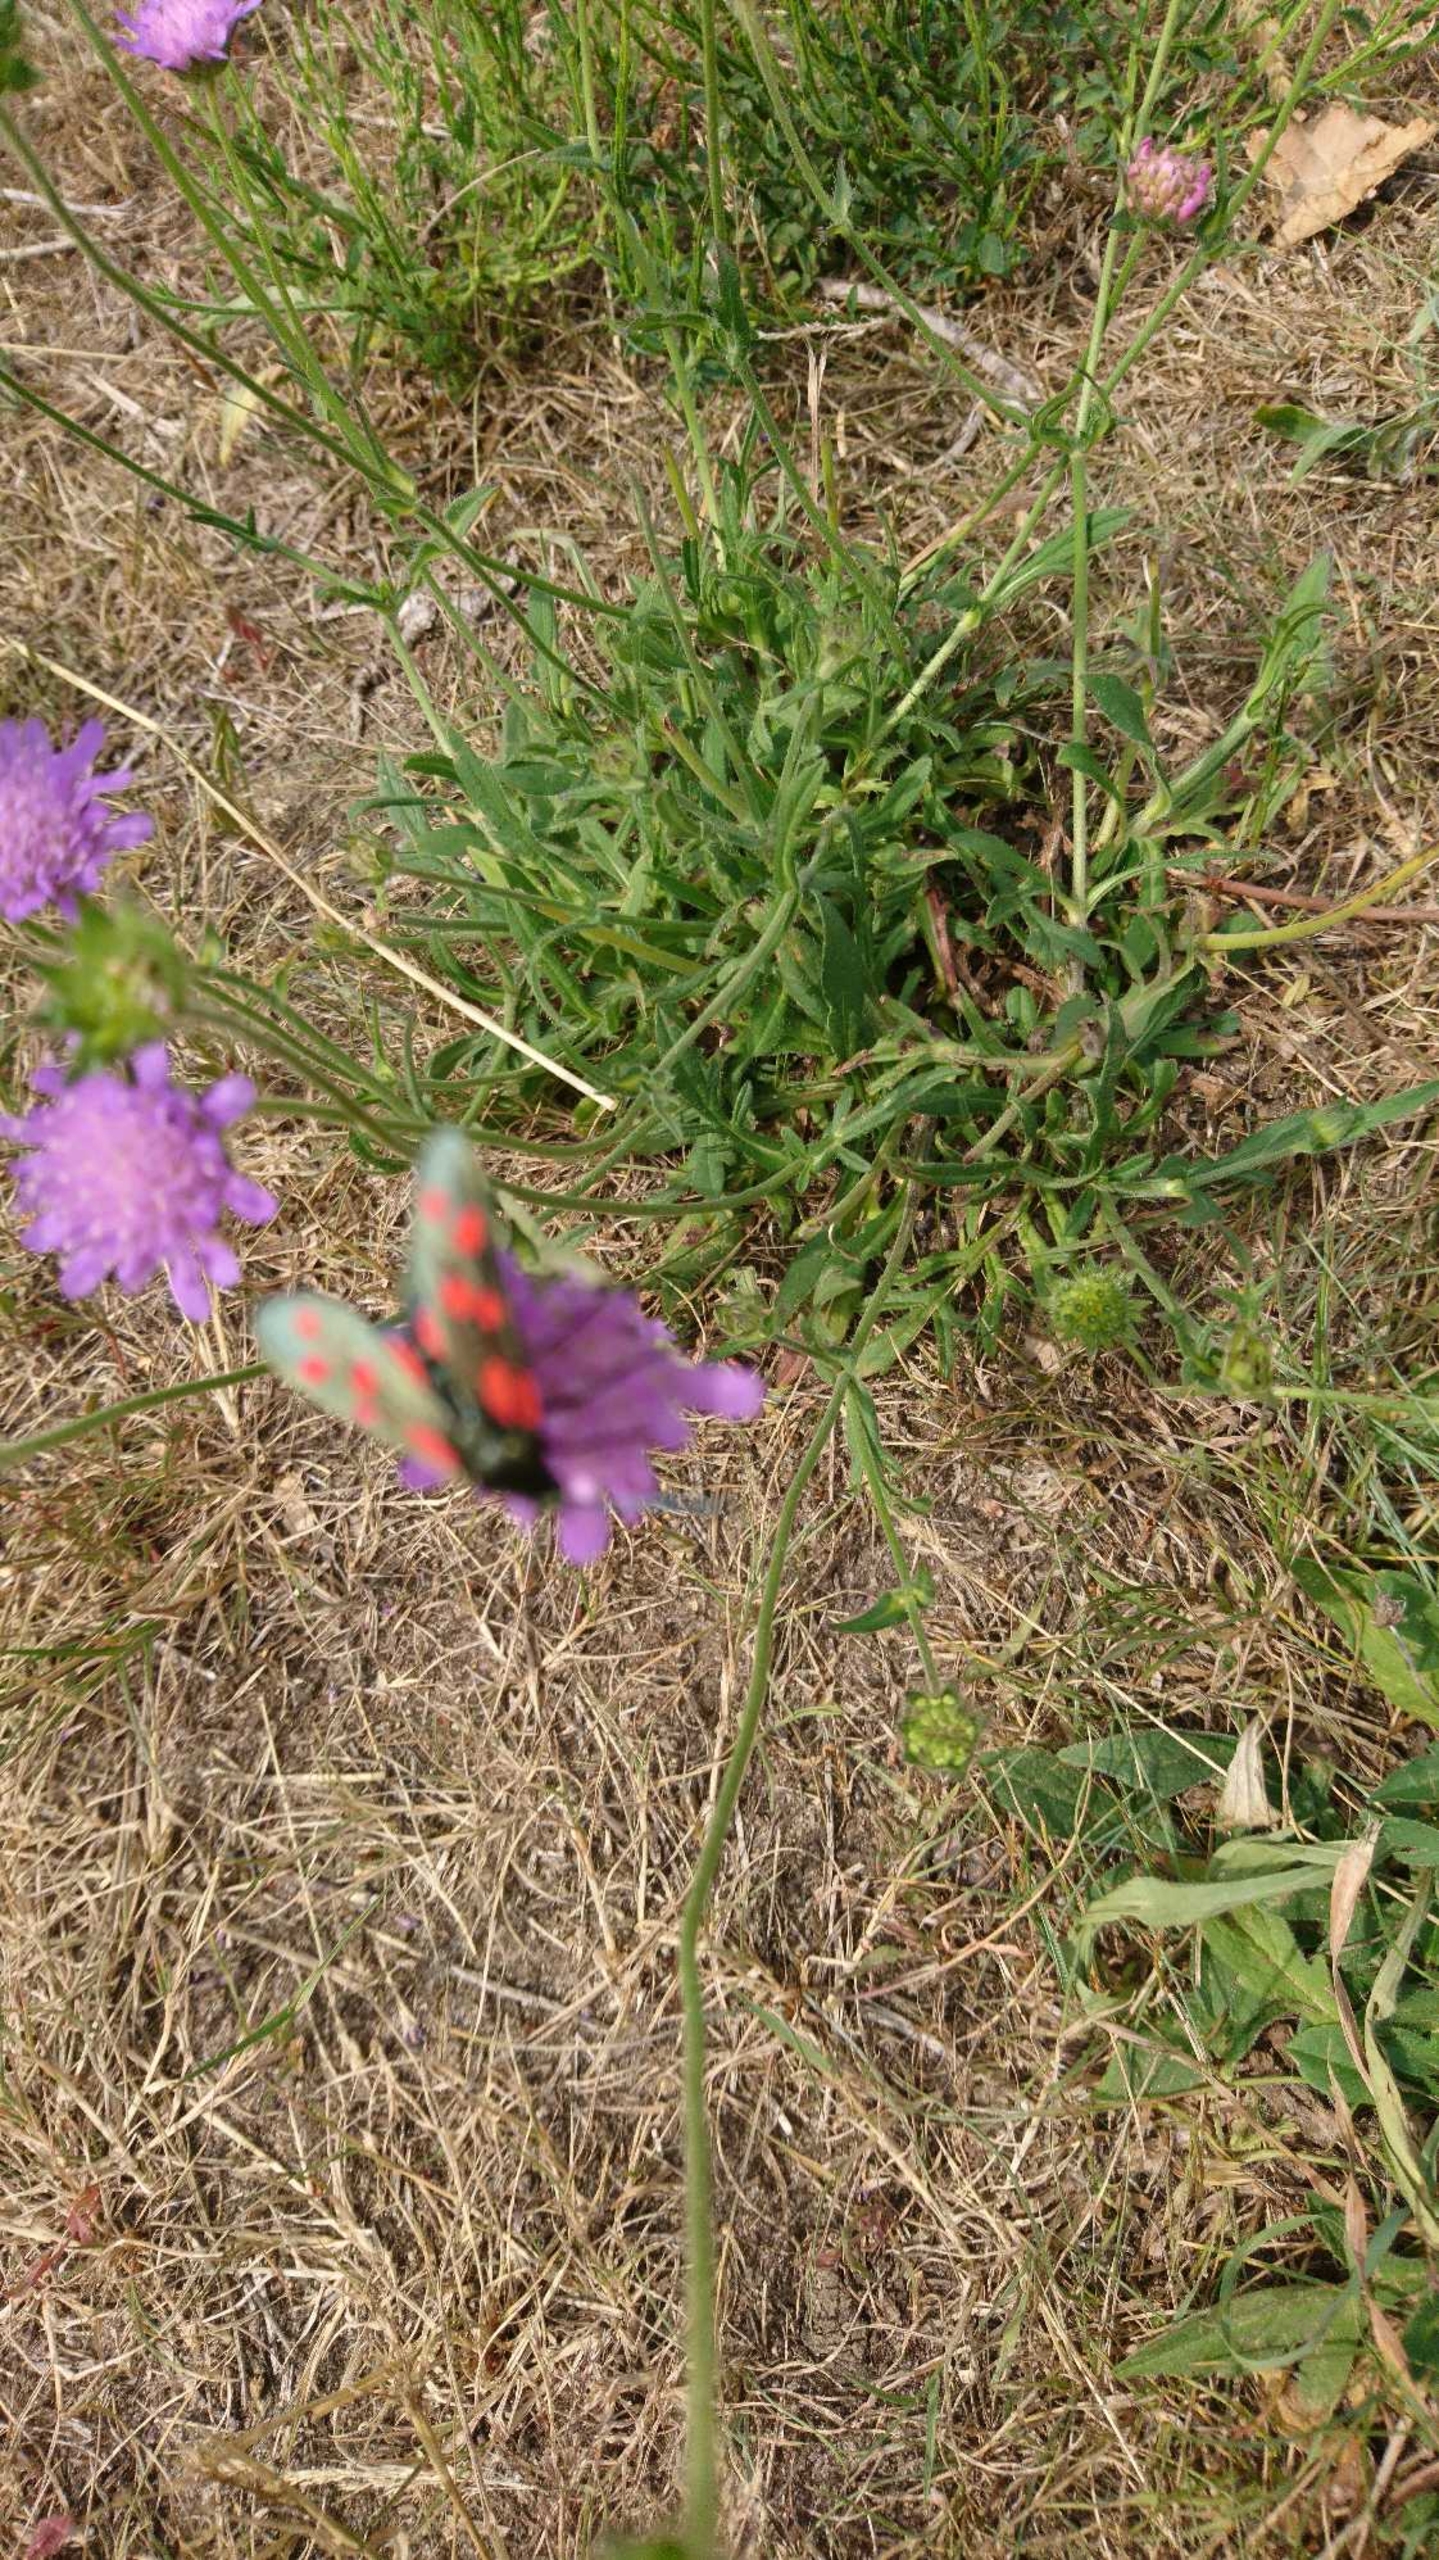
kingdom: Animalia
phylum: Arthropoda
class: Insecta
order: Lepidoptera
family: Zygaenidae
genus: Zygaena
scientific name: Zygaena filipendulae
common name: Seksplettet køllesværmer
